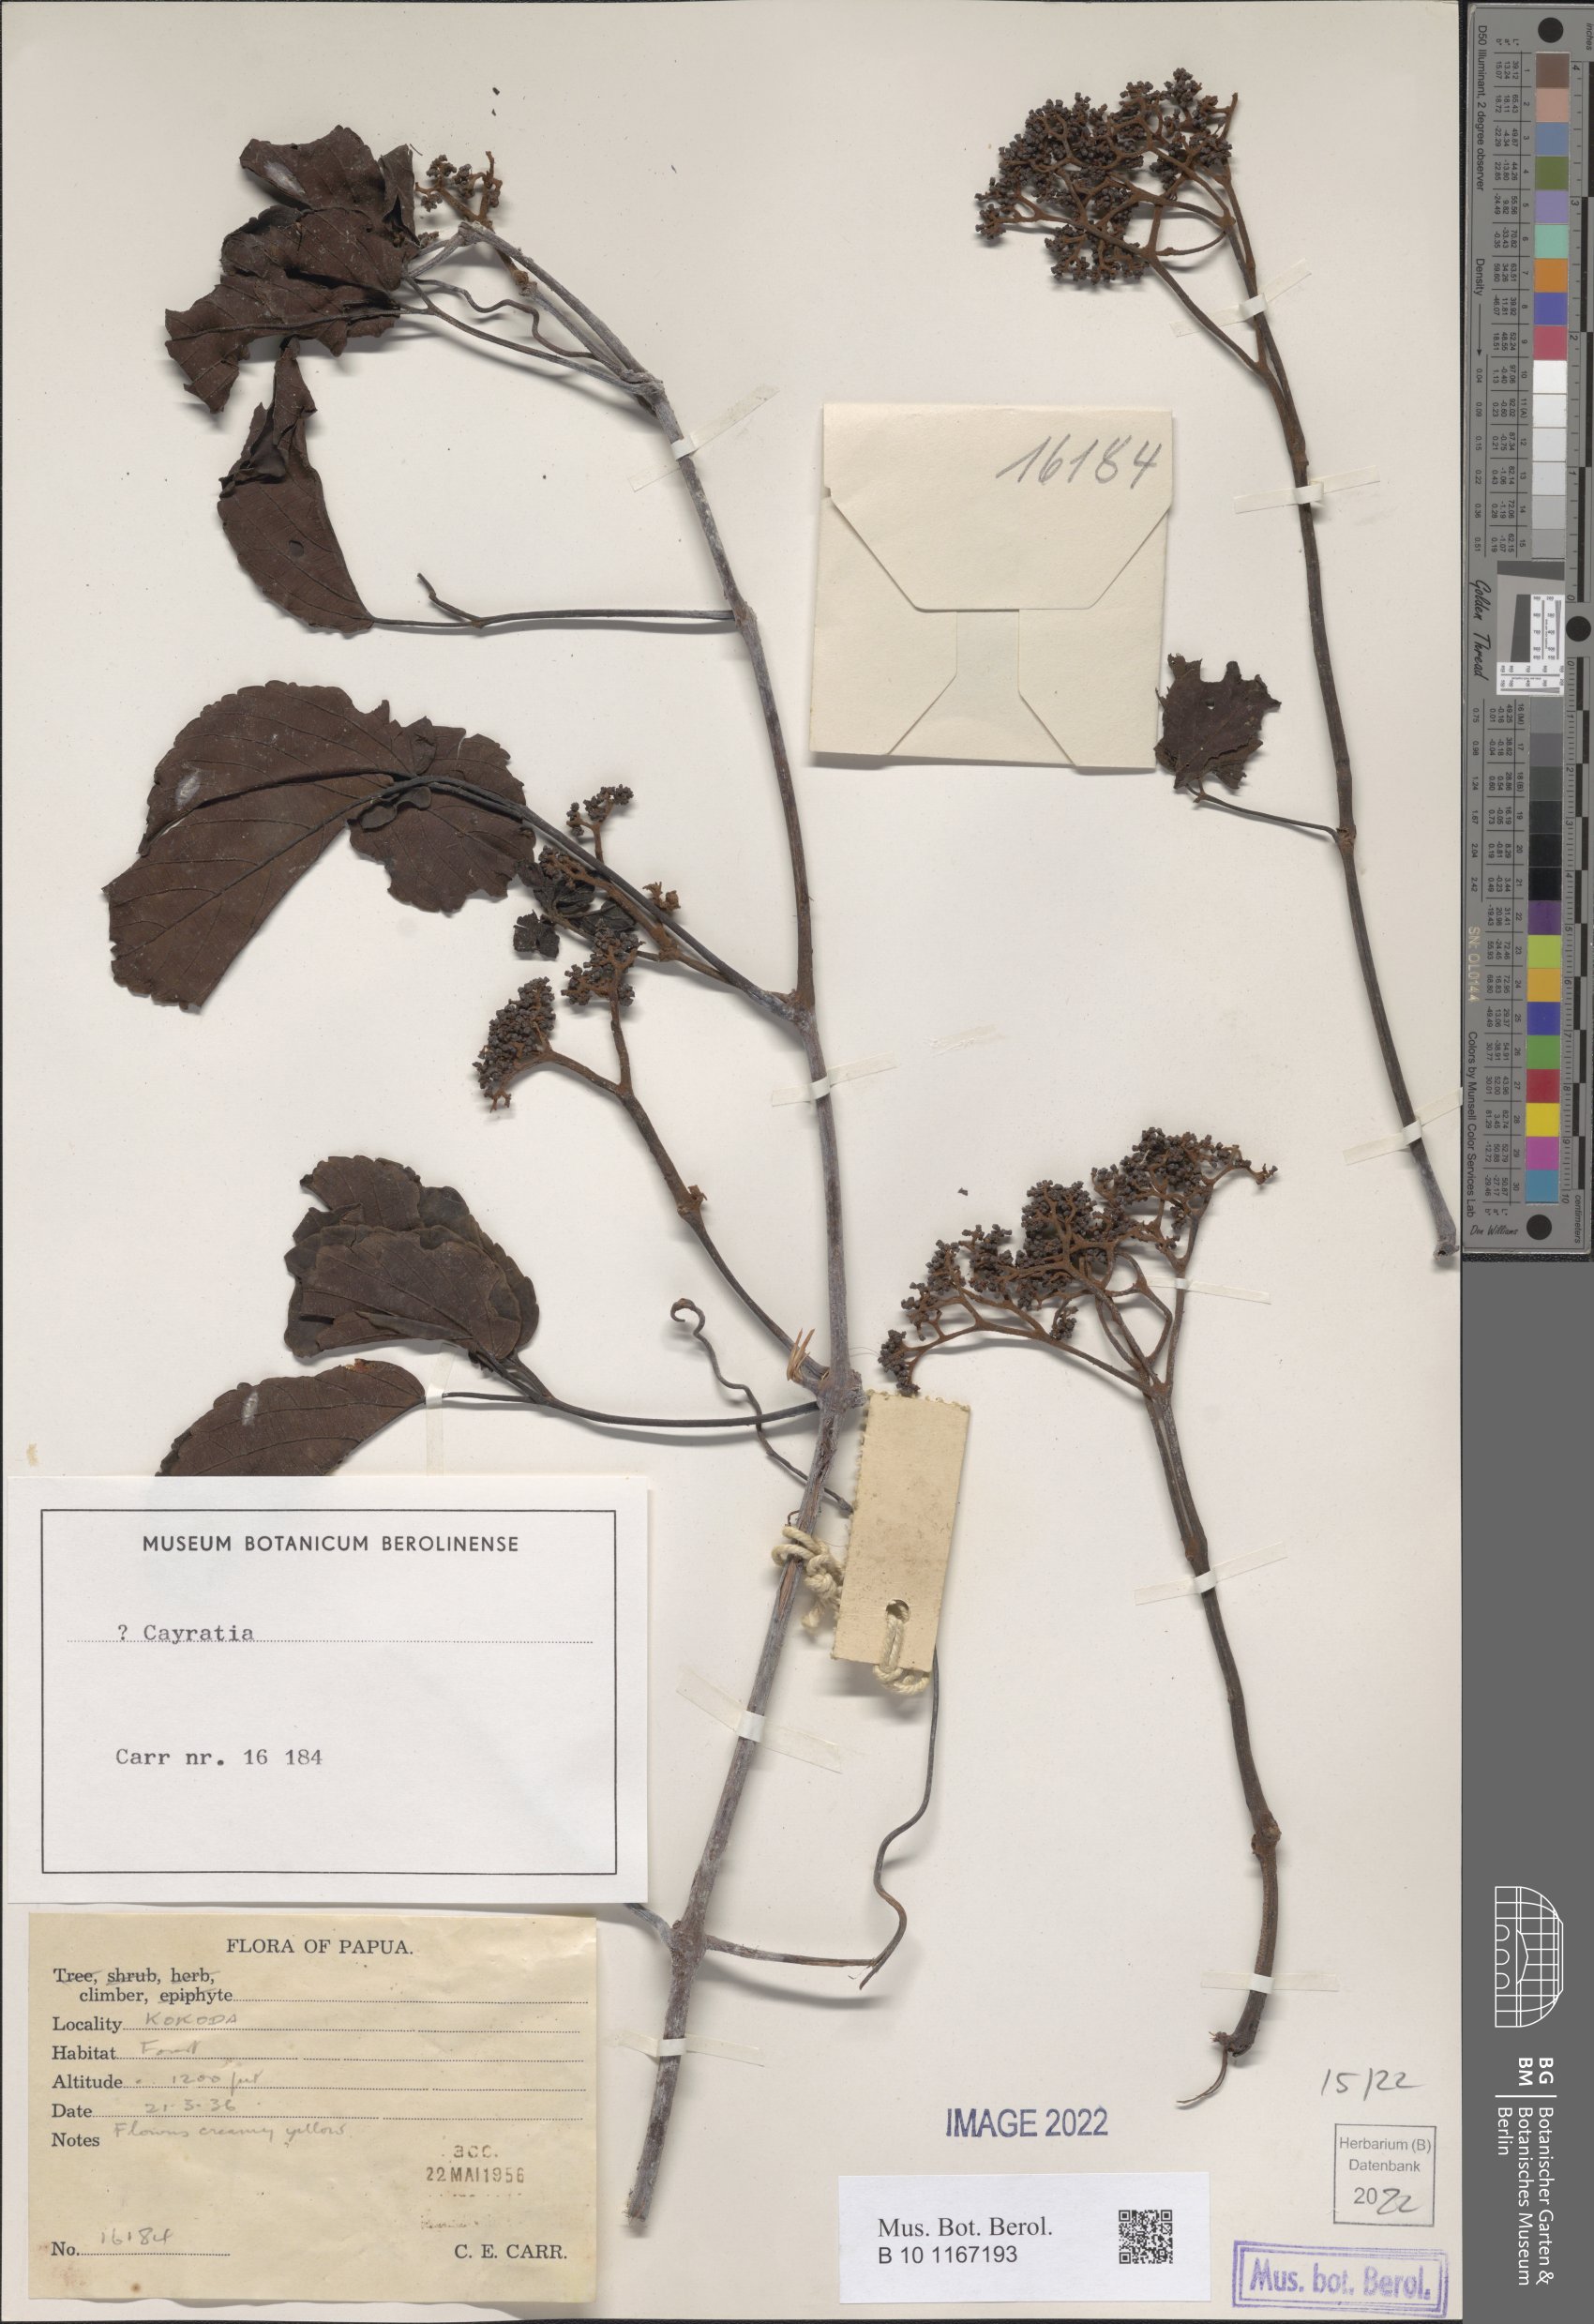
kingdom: Plantae
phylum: Tracheophyta
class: Magnoliopsida
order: Vitales
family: Vitaceae
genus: Cayratia
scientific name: Cayratia
